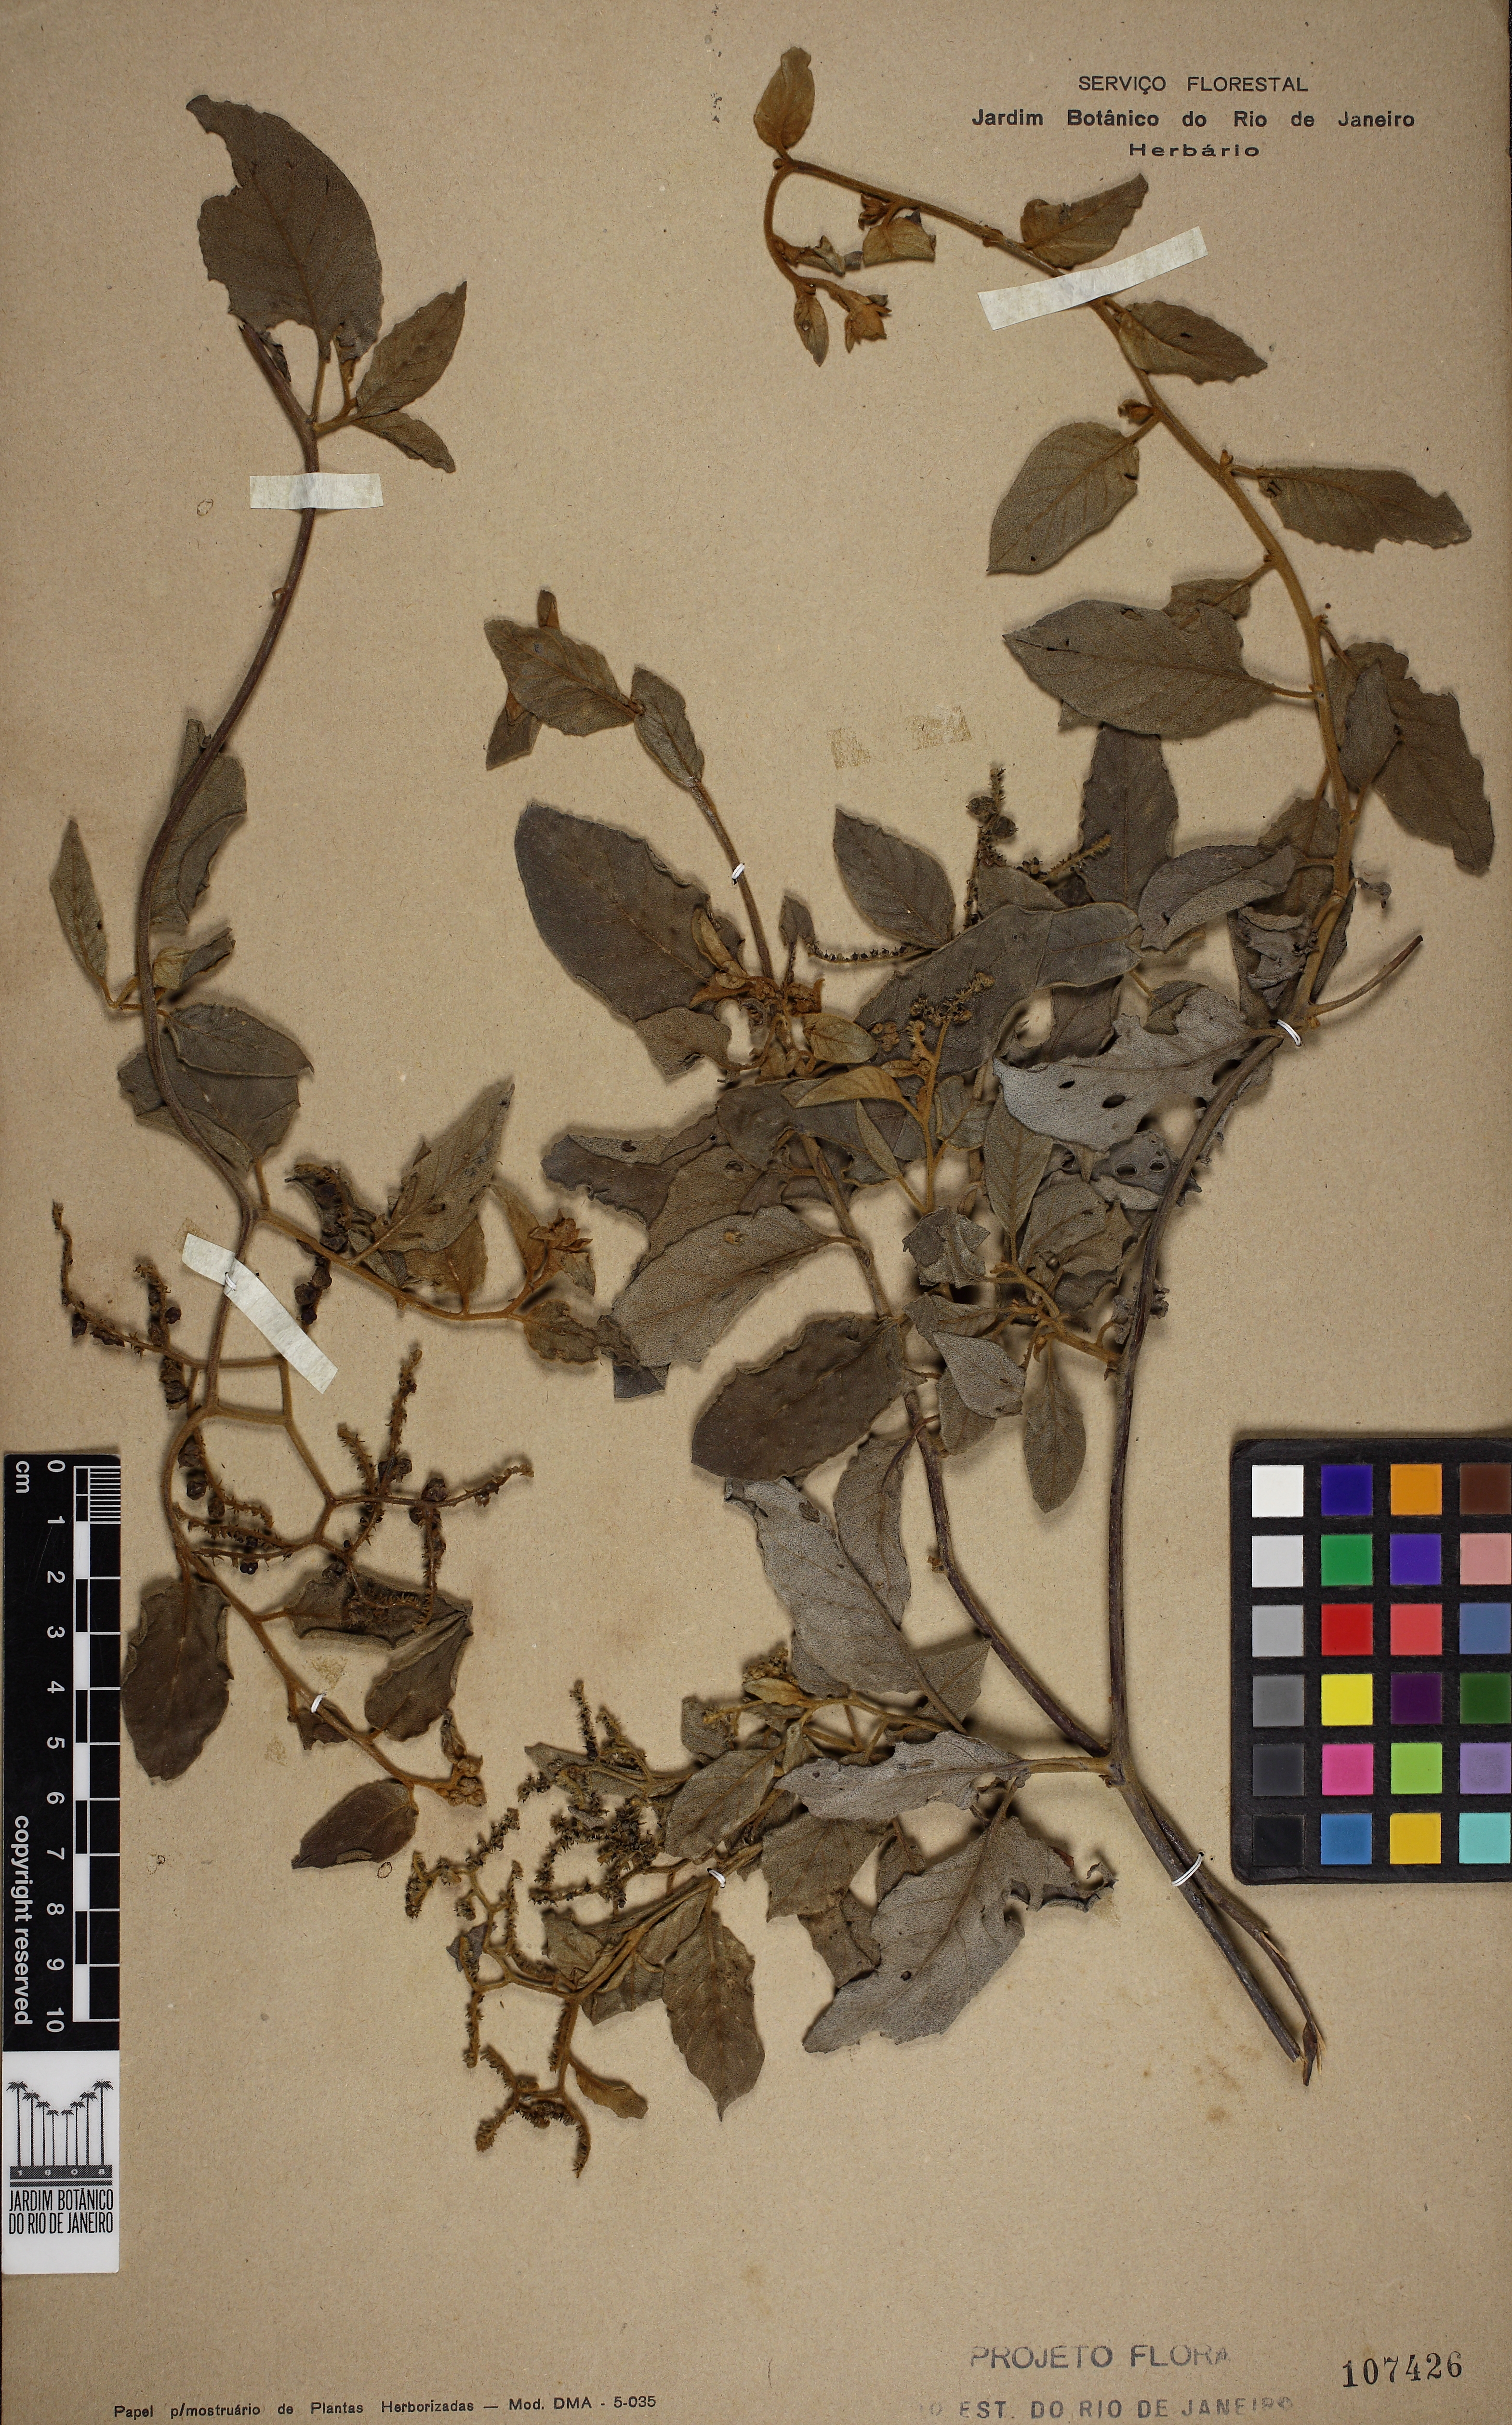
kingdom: Plantae
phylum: Tracheophyta
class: Magnoliopsida
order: Boraginales
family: Heliotropiaceae
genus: Myriopus
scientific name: Myriopus membranaceus
